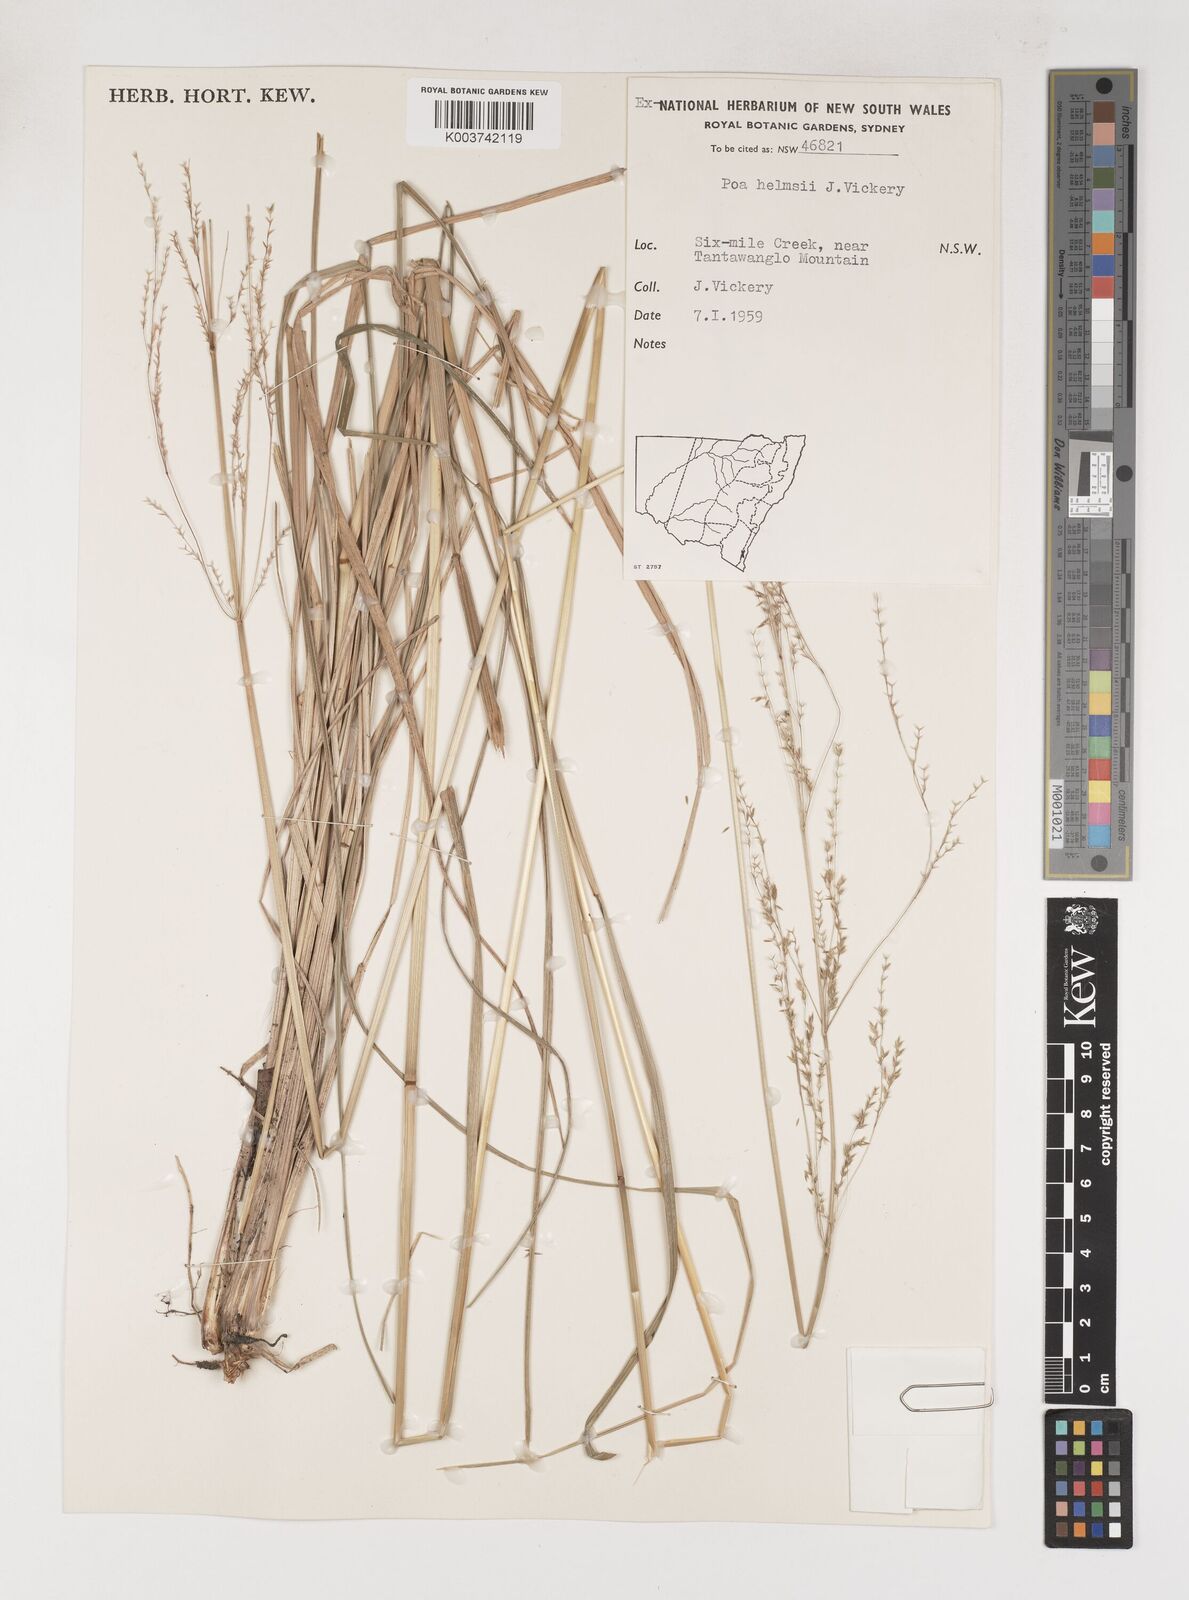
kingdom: Plantae
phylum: Tracheophyta
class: Liliopsida
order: Poales
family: Poaceae
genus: Poa
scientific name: Poa helmsii
